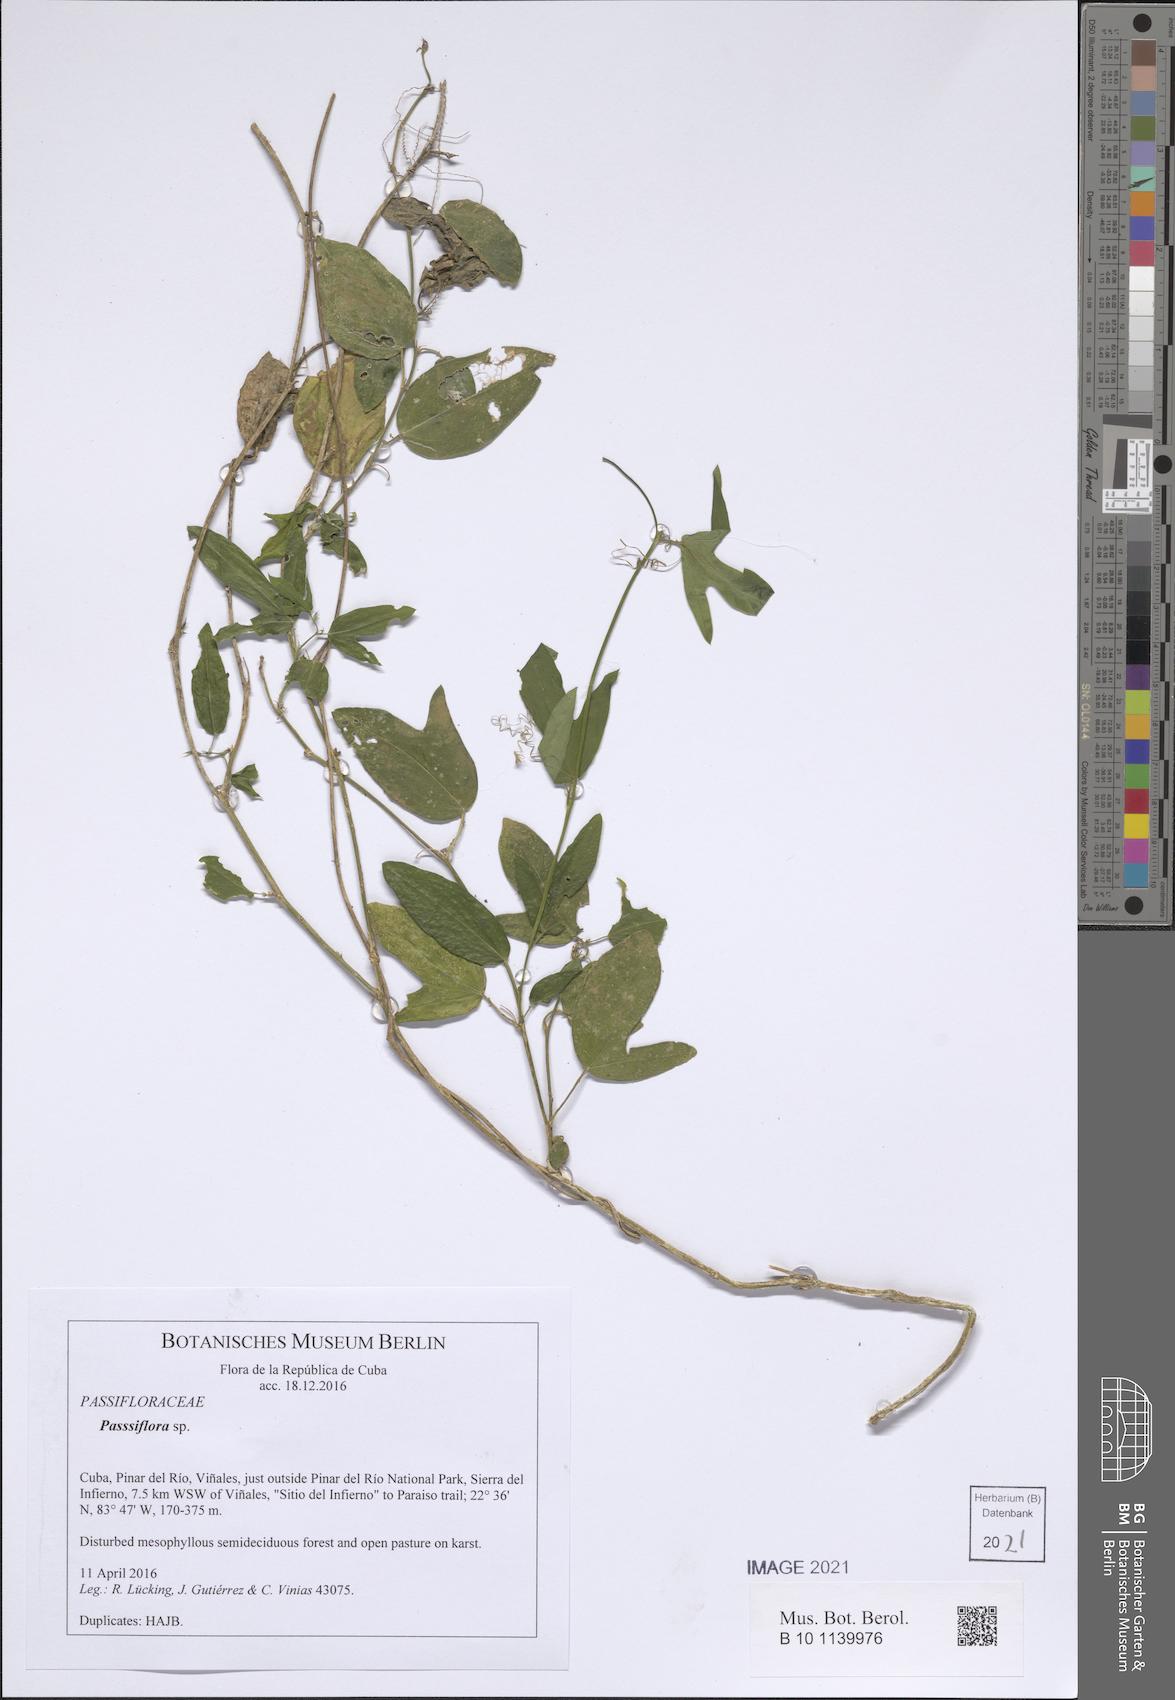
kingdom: Plantae
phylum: Tracheophyta
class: Magnoliopsida
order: Malpighiales
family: Passifloraceae
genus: Passiflora
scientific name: Passiflora
